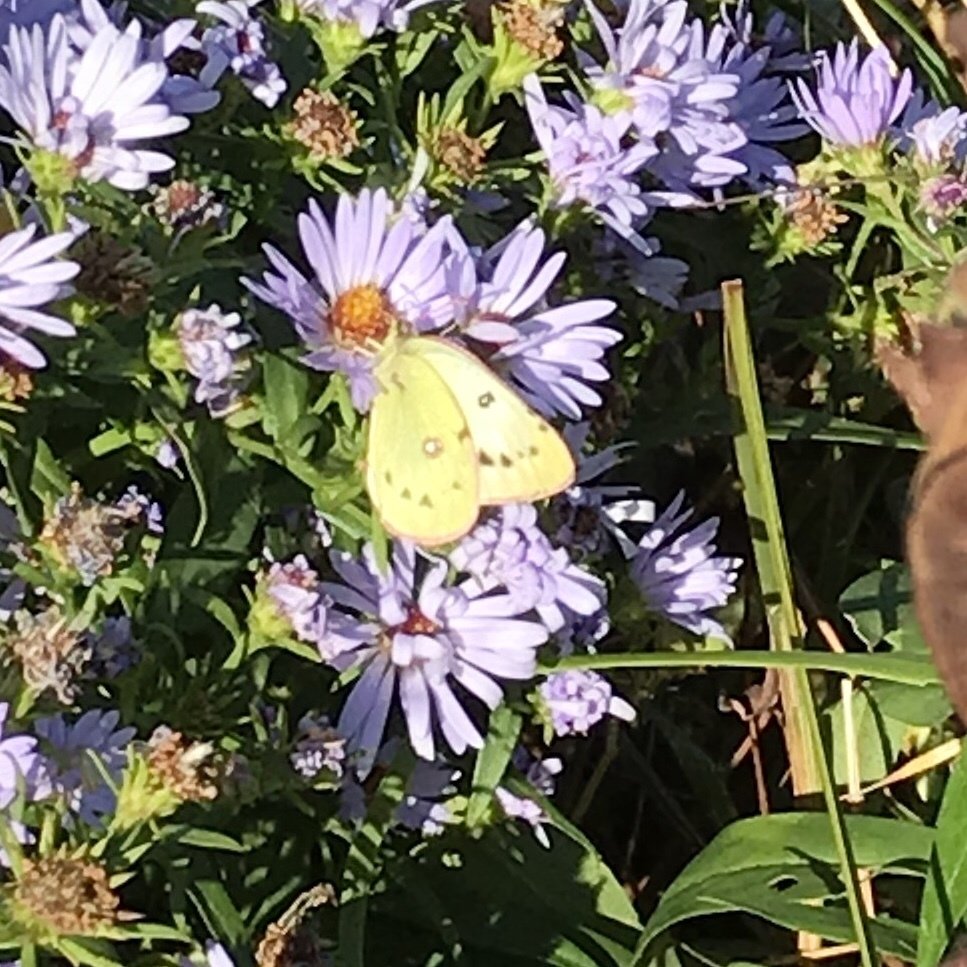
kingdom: Animalia
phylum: Arthropoda
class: Insecta
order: Lepidoptera
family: Pieridae
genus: Colias
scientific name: Colias
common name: Clouded Yellows
